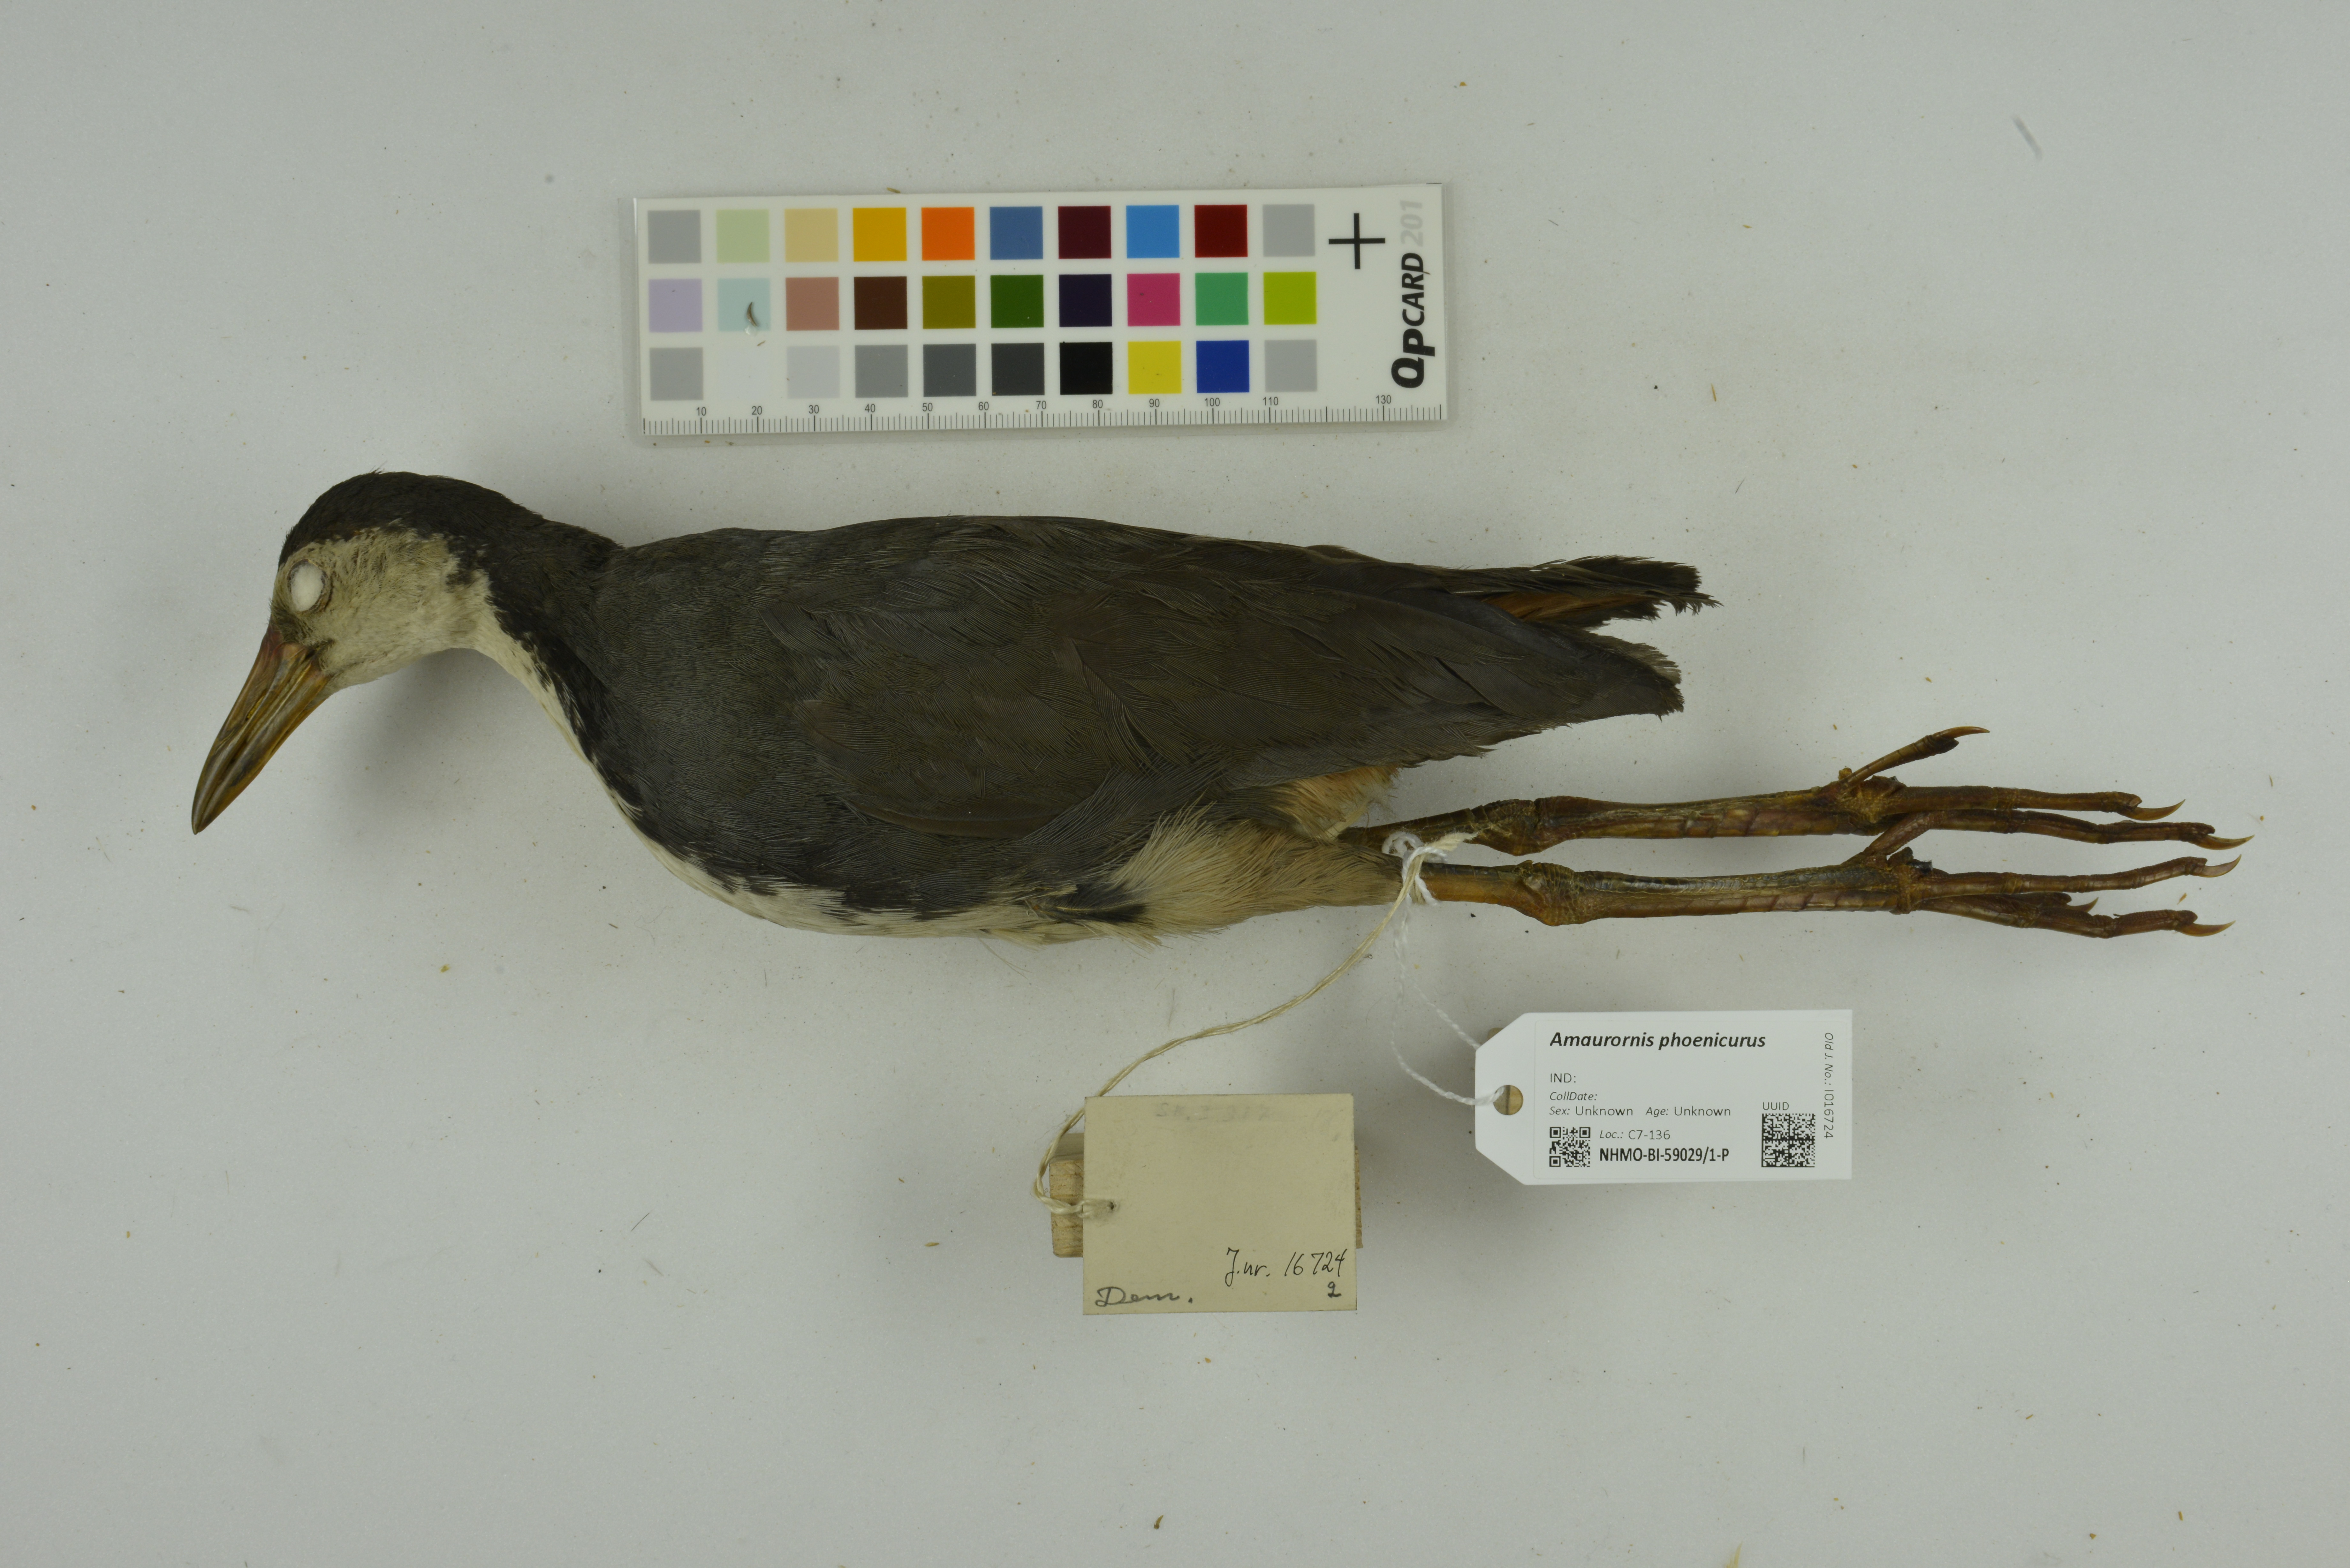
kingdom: Animalia
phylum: Chordata
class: Aves
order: Gruiformes
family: Rallidae
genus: Amaurornis
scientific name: Amaurornis phoenicurus
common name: White-breasted waterhen
